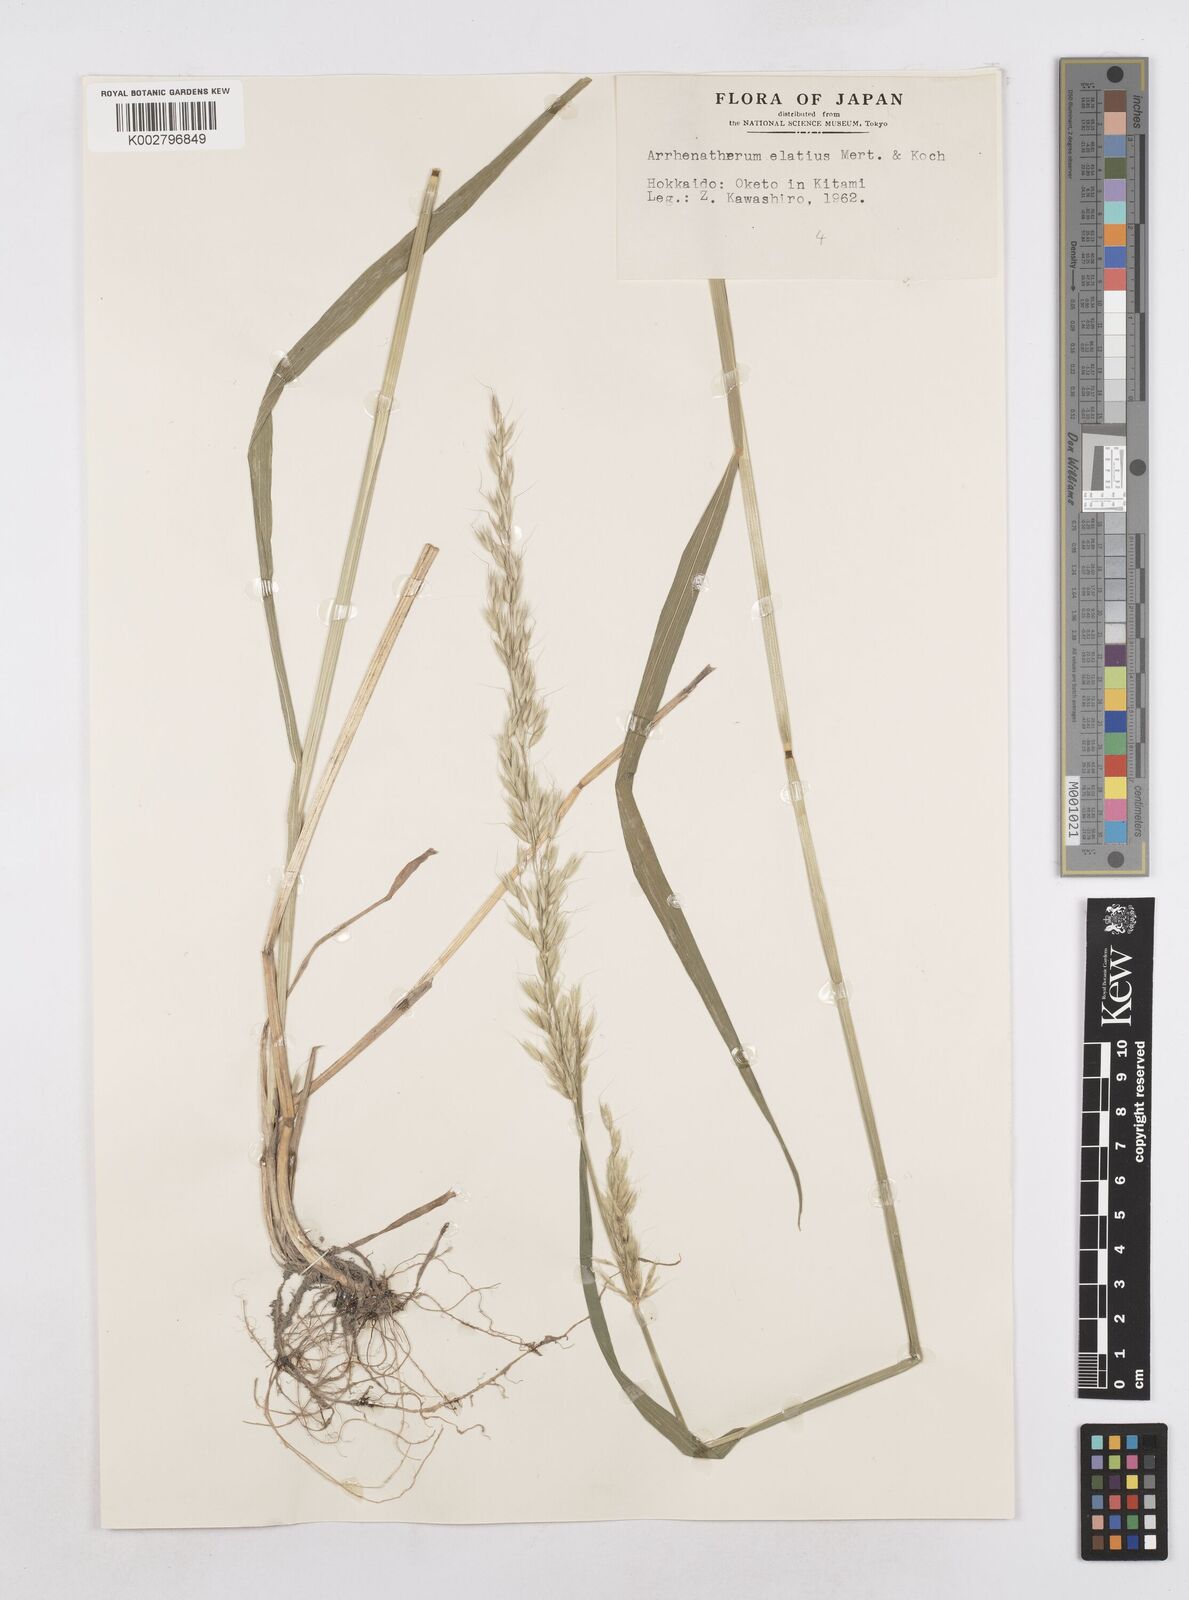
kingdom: Plantae
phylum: Tracheophyta
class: Liliopsida
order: Poales
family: Poaceae
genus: Arrhenatherum
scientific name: Arrhenatherum elatius
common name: Tall oatgrass
